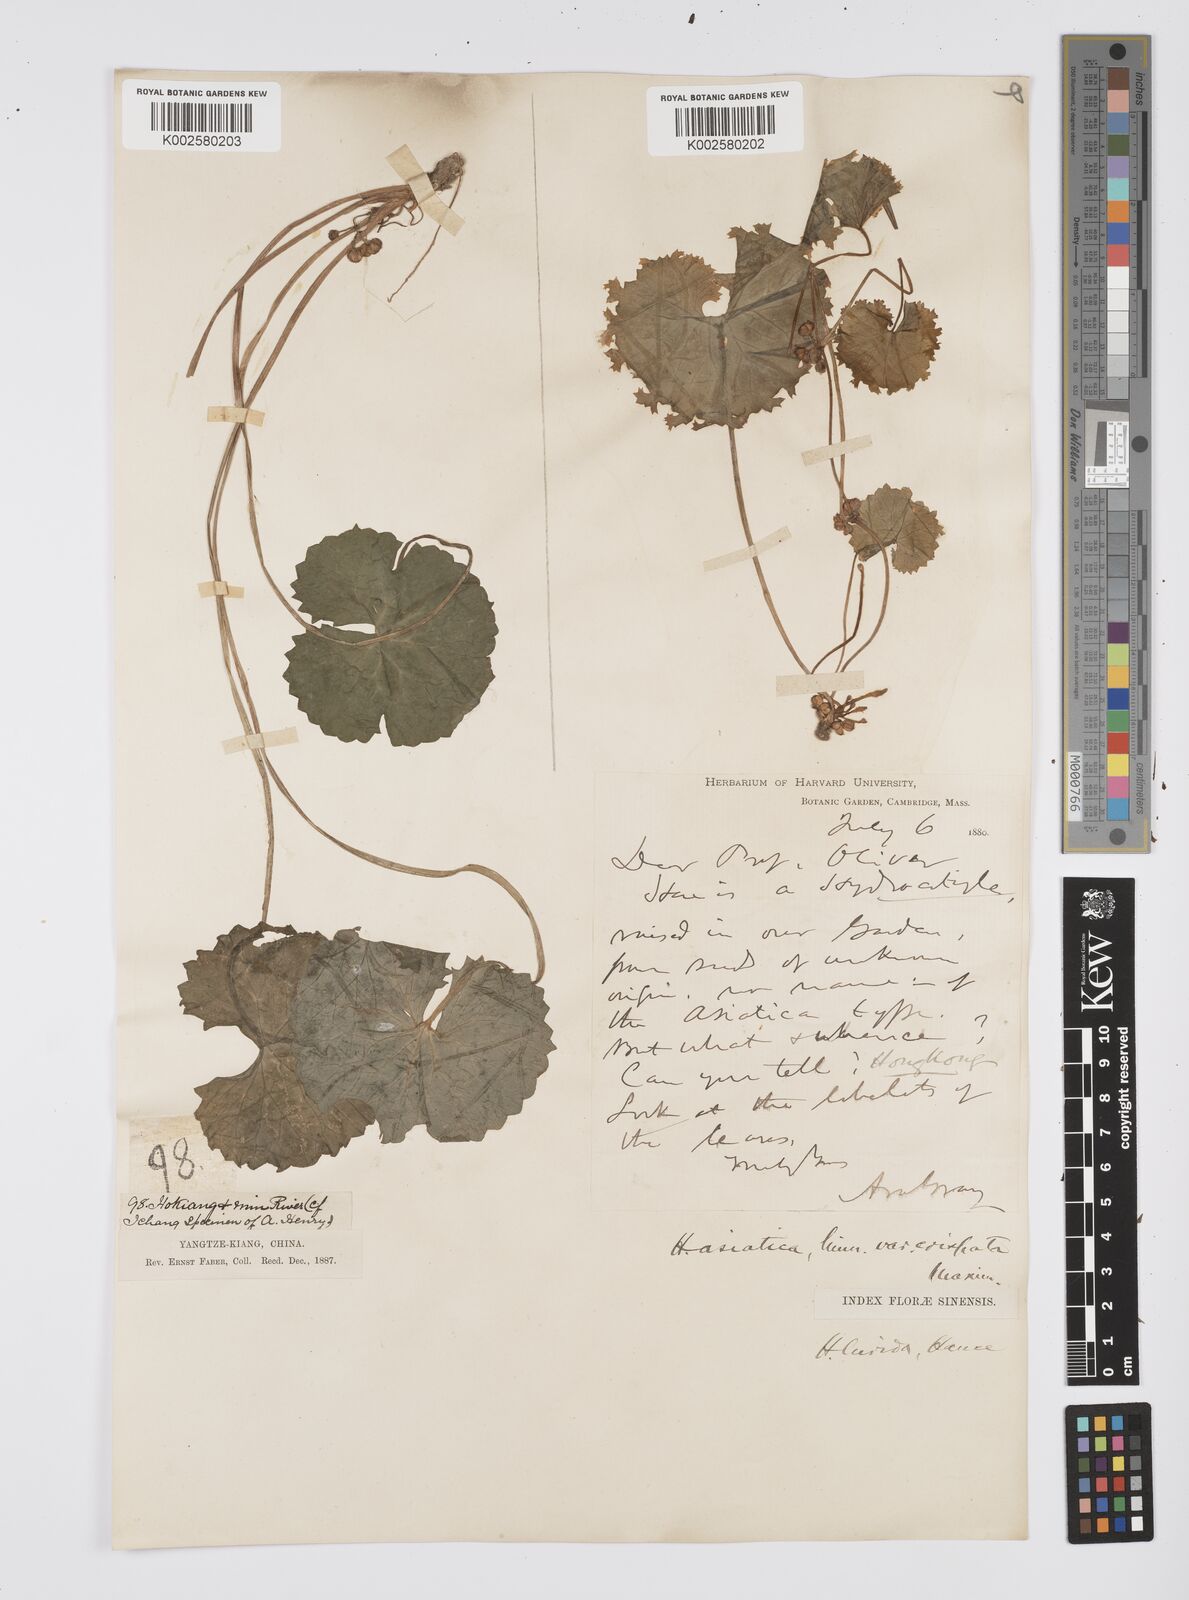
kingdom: Plantae
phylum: Tracheophyta
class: Magnoliopsida
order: Apiales
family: Apiaceae
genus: Centella
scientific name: Centella asiatica
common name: Spadeleaf
